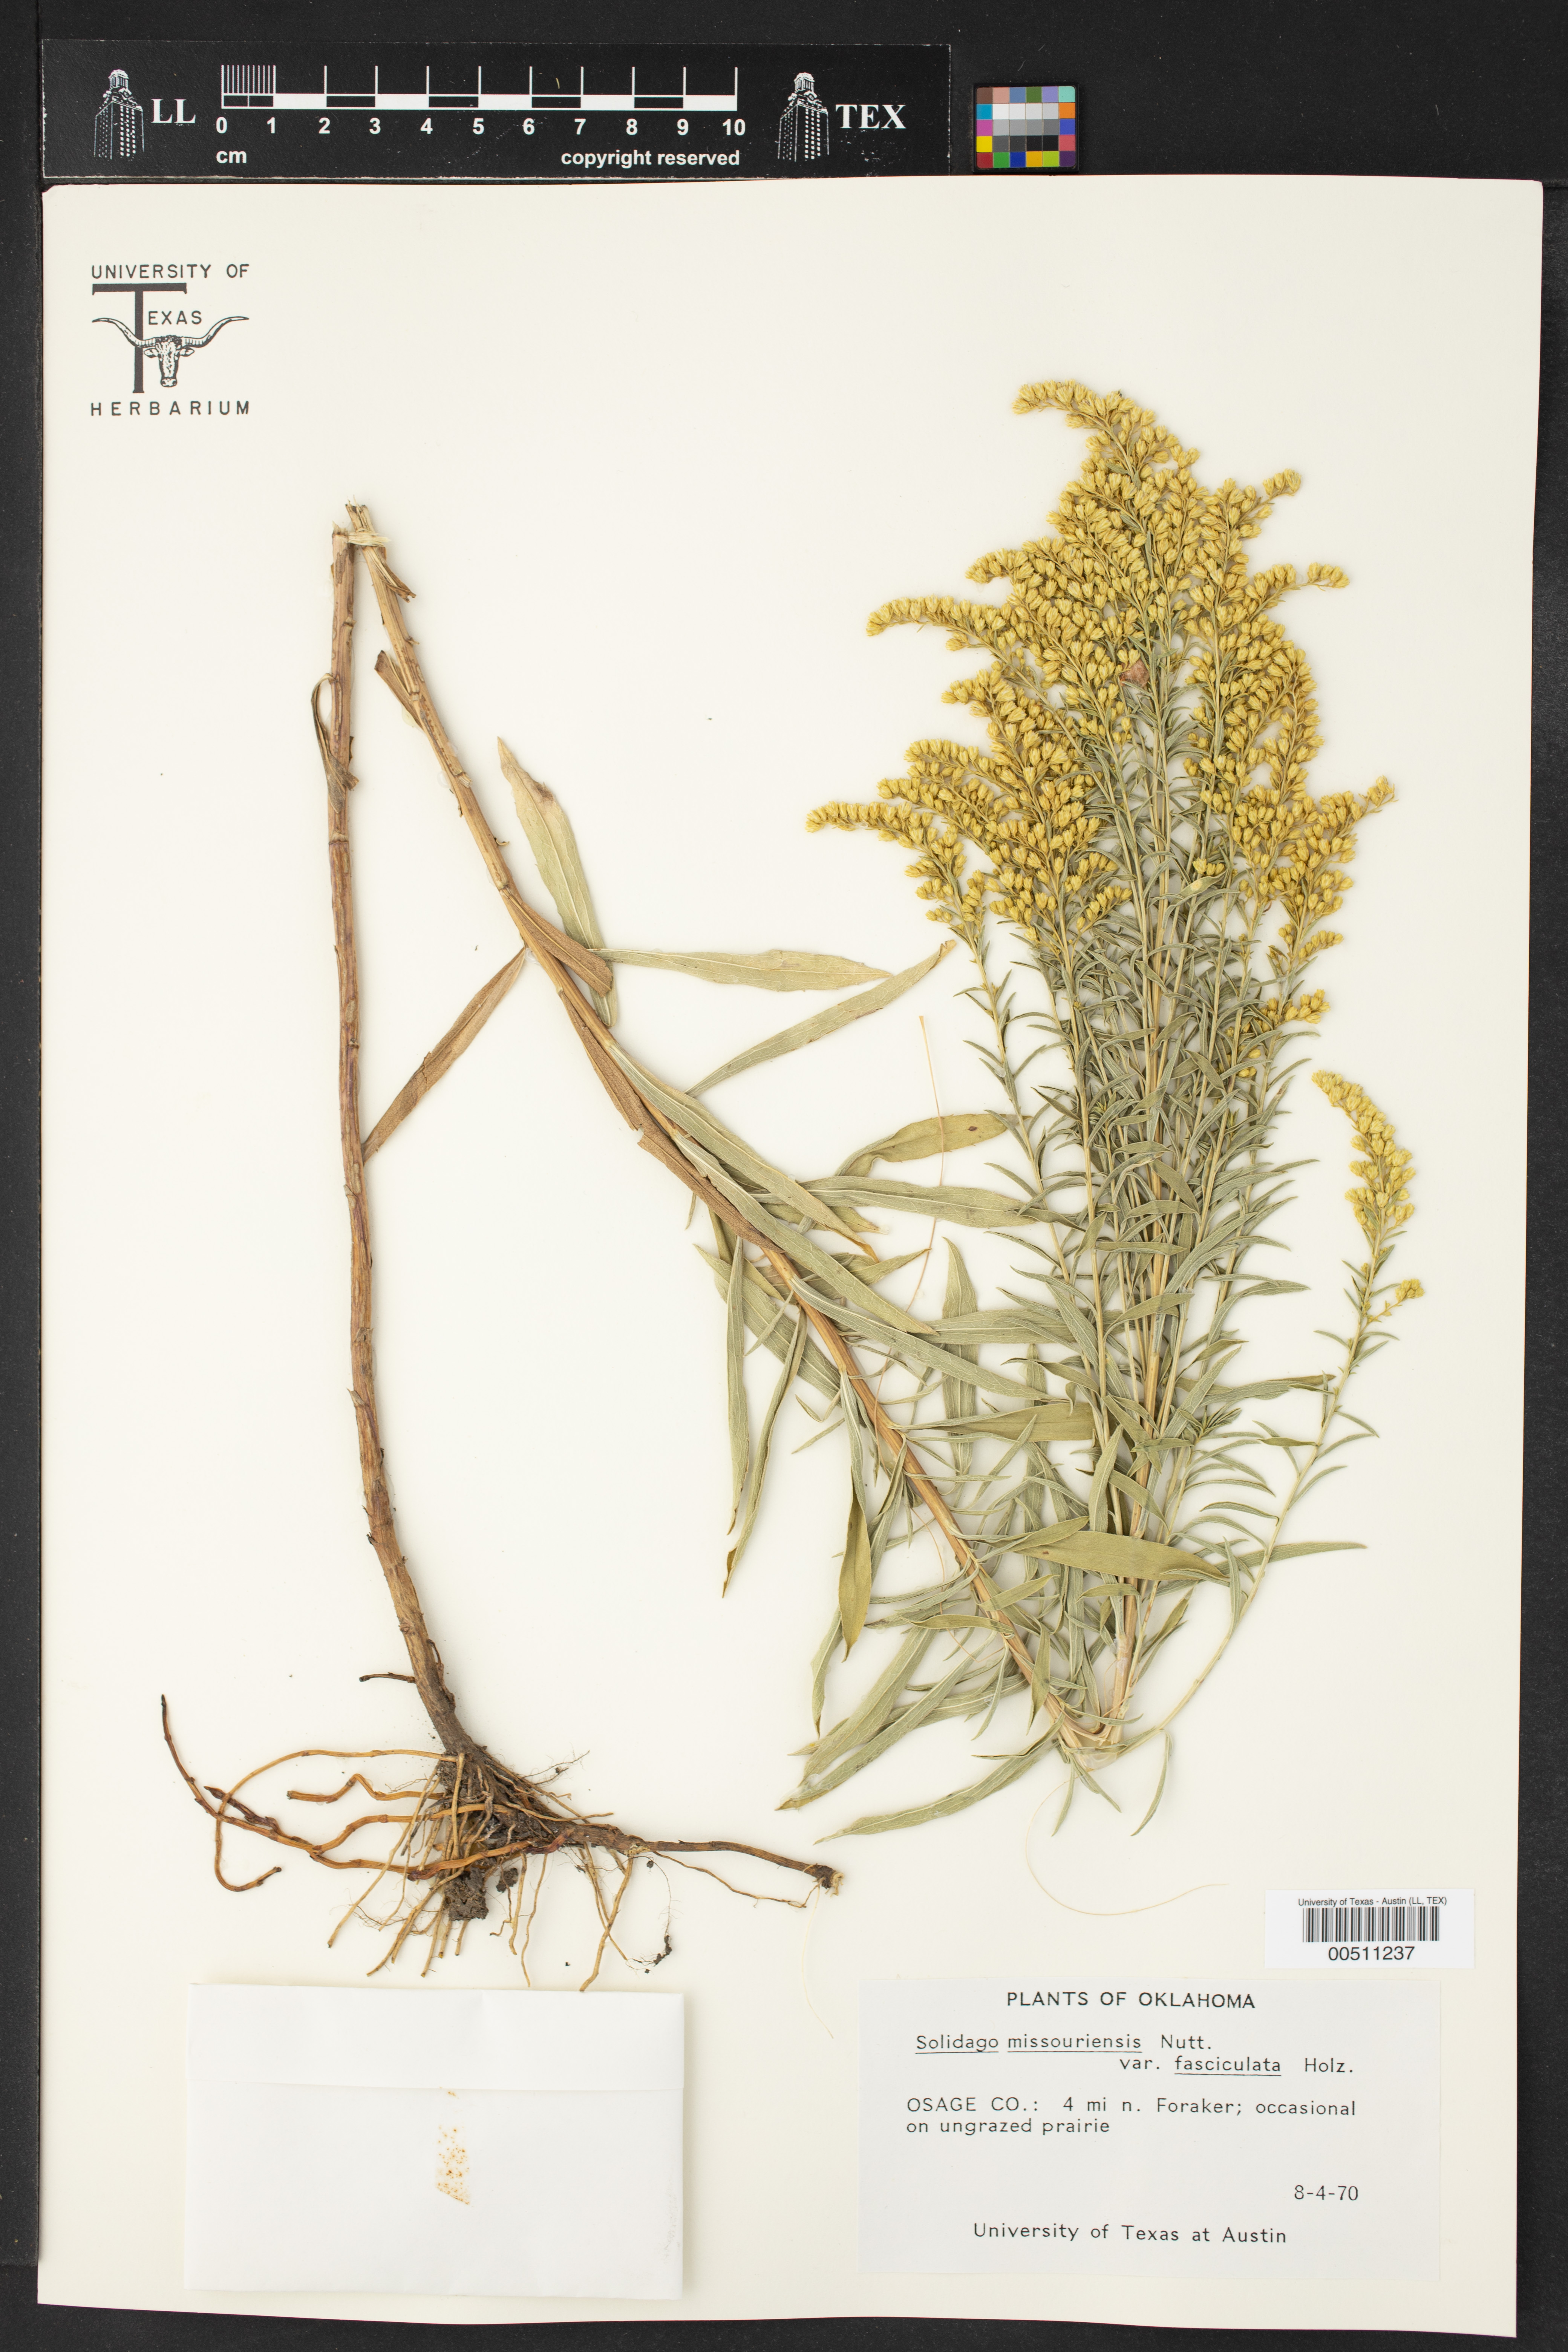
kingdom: Plantae
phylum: Tracheophyta
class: Magnoliopsida
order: Asterales
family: Asteraceae
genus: Solidago
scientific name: Solidago missouriensis
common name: Prairie goldenrod
